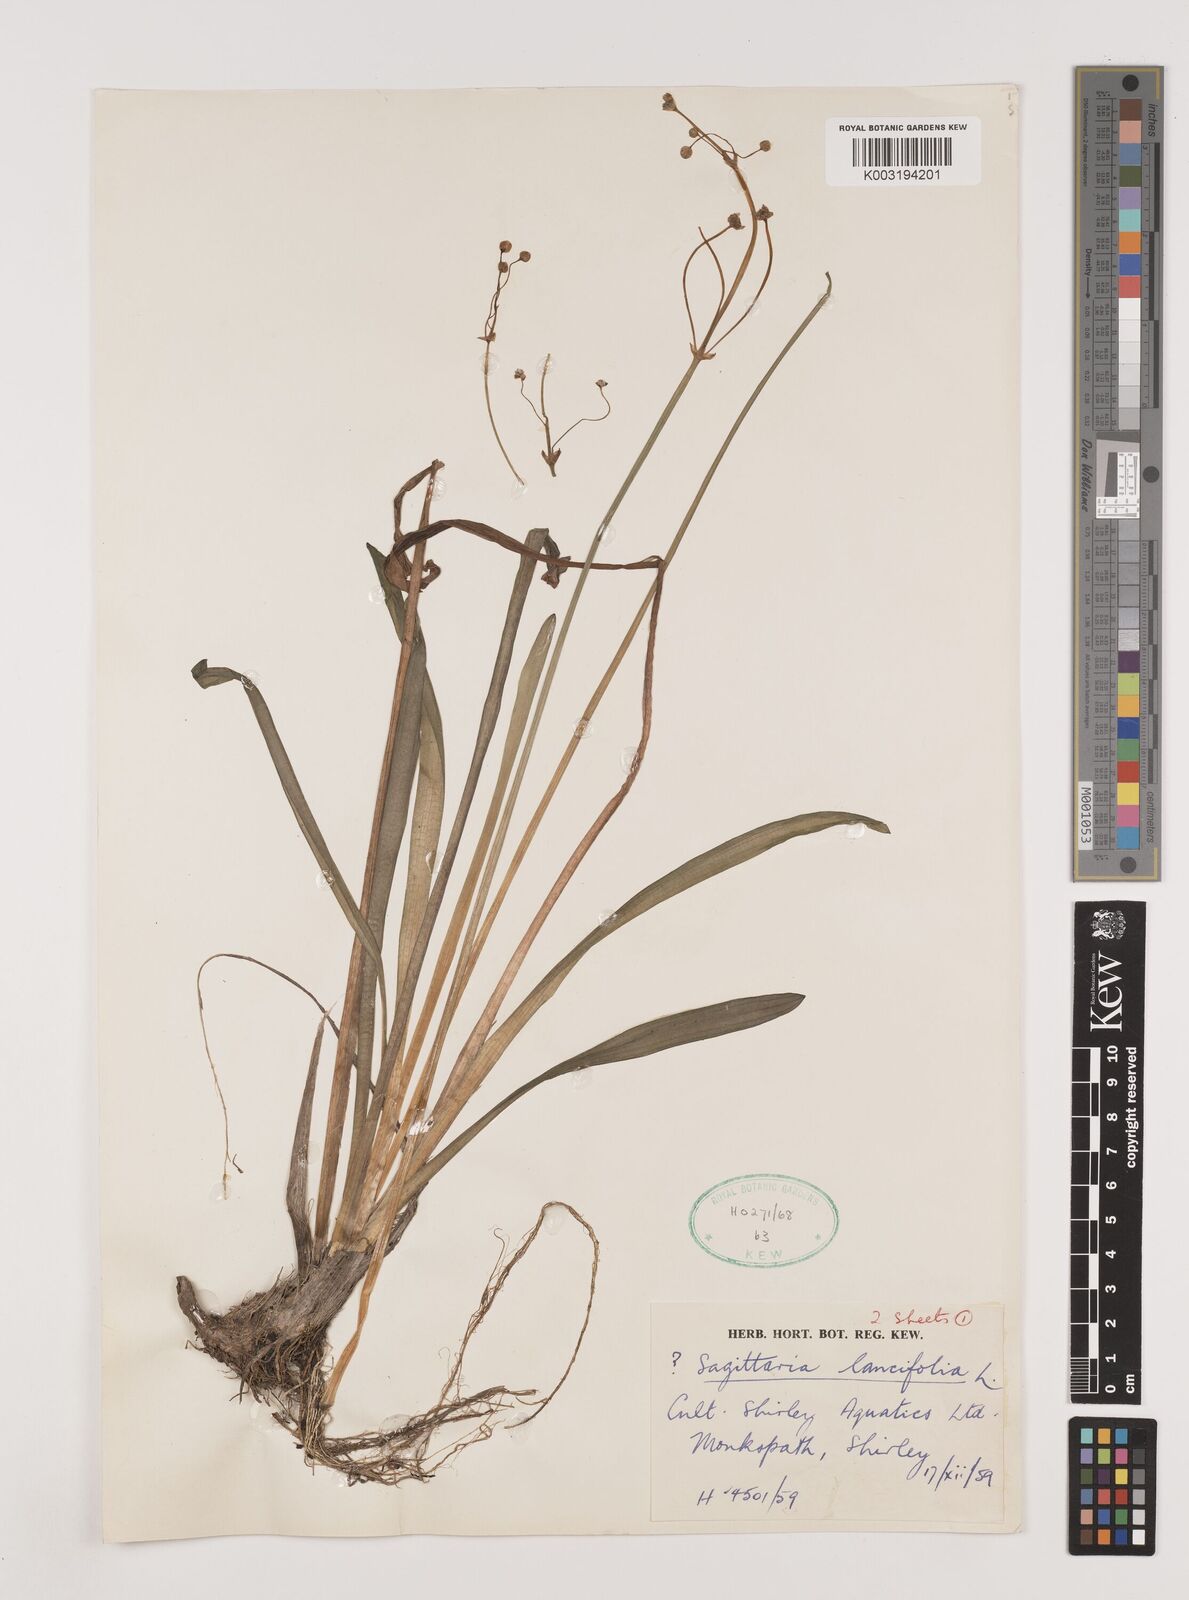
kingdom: Plantae
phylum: Tracheophyta
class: Liliopsida
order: Alismatales
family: Alismataceae
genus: Sagittaria
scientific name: Sagittaria lancifolia
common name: Lance-leaf arrowhead
